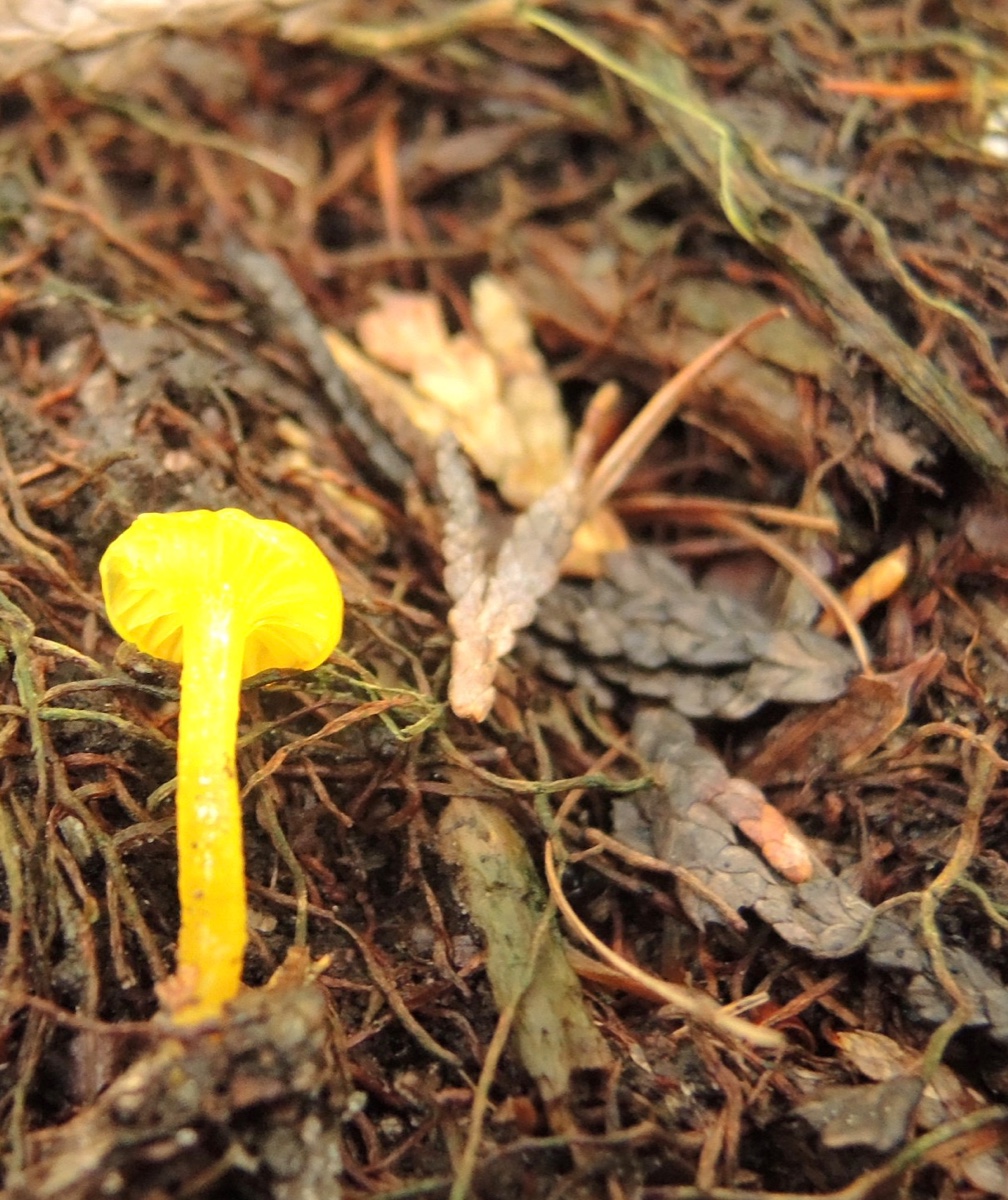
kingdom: Fungi
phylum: Basidiomycota
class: Agaricomycetes
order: Agaricales
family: Hygrophoraceae
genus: Gloioxanthomyces
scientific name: Gloioxanthomyces vitellinus
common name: kromgul vokshat
